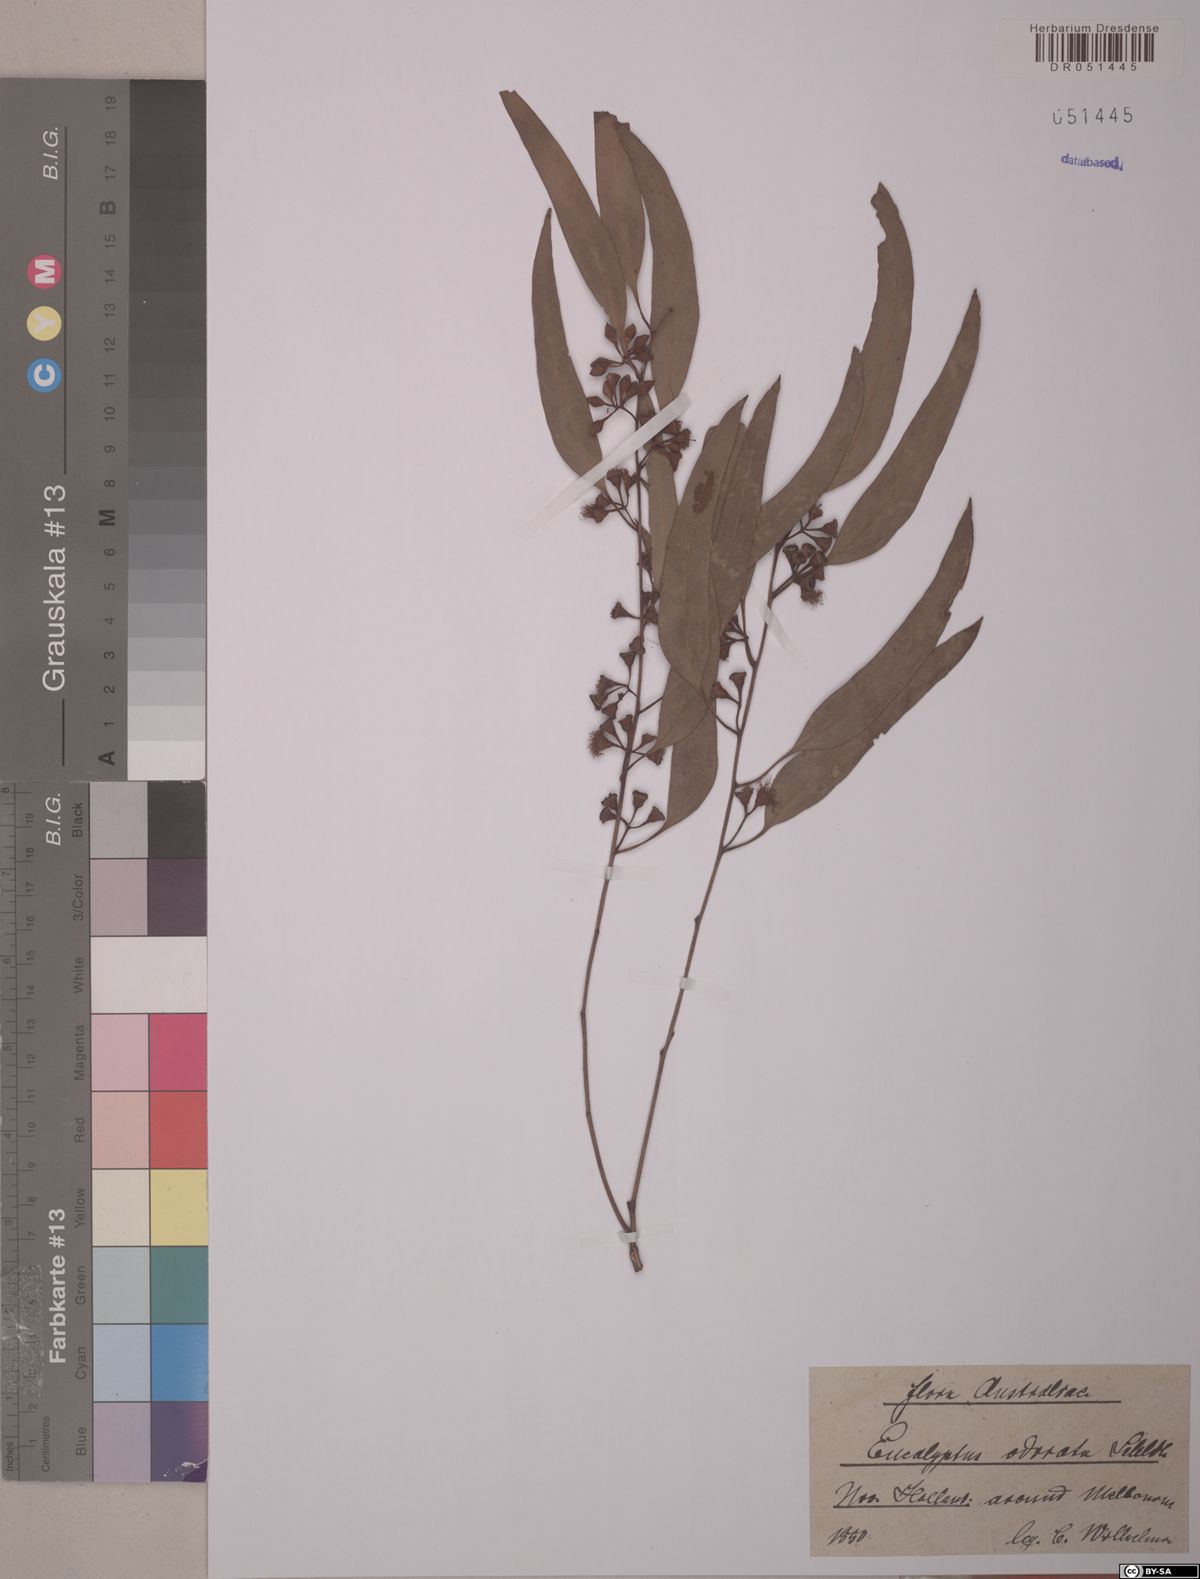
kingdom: Plantae
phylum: Tracheophyta
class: Magnoliopsida
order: Myrtales
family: Myrtaceae
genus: Eucalyptus
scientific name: Eucalyptus odorata
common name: Peppermint box
